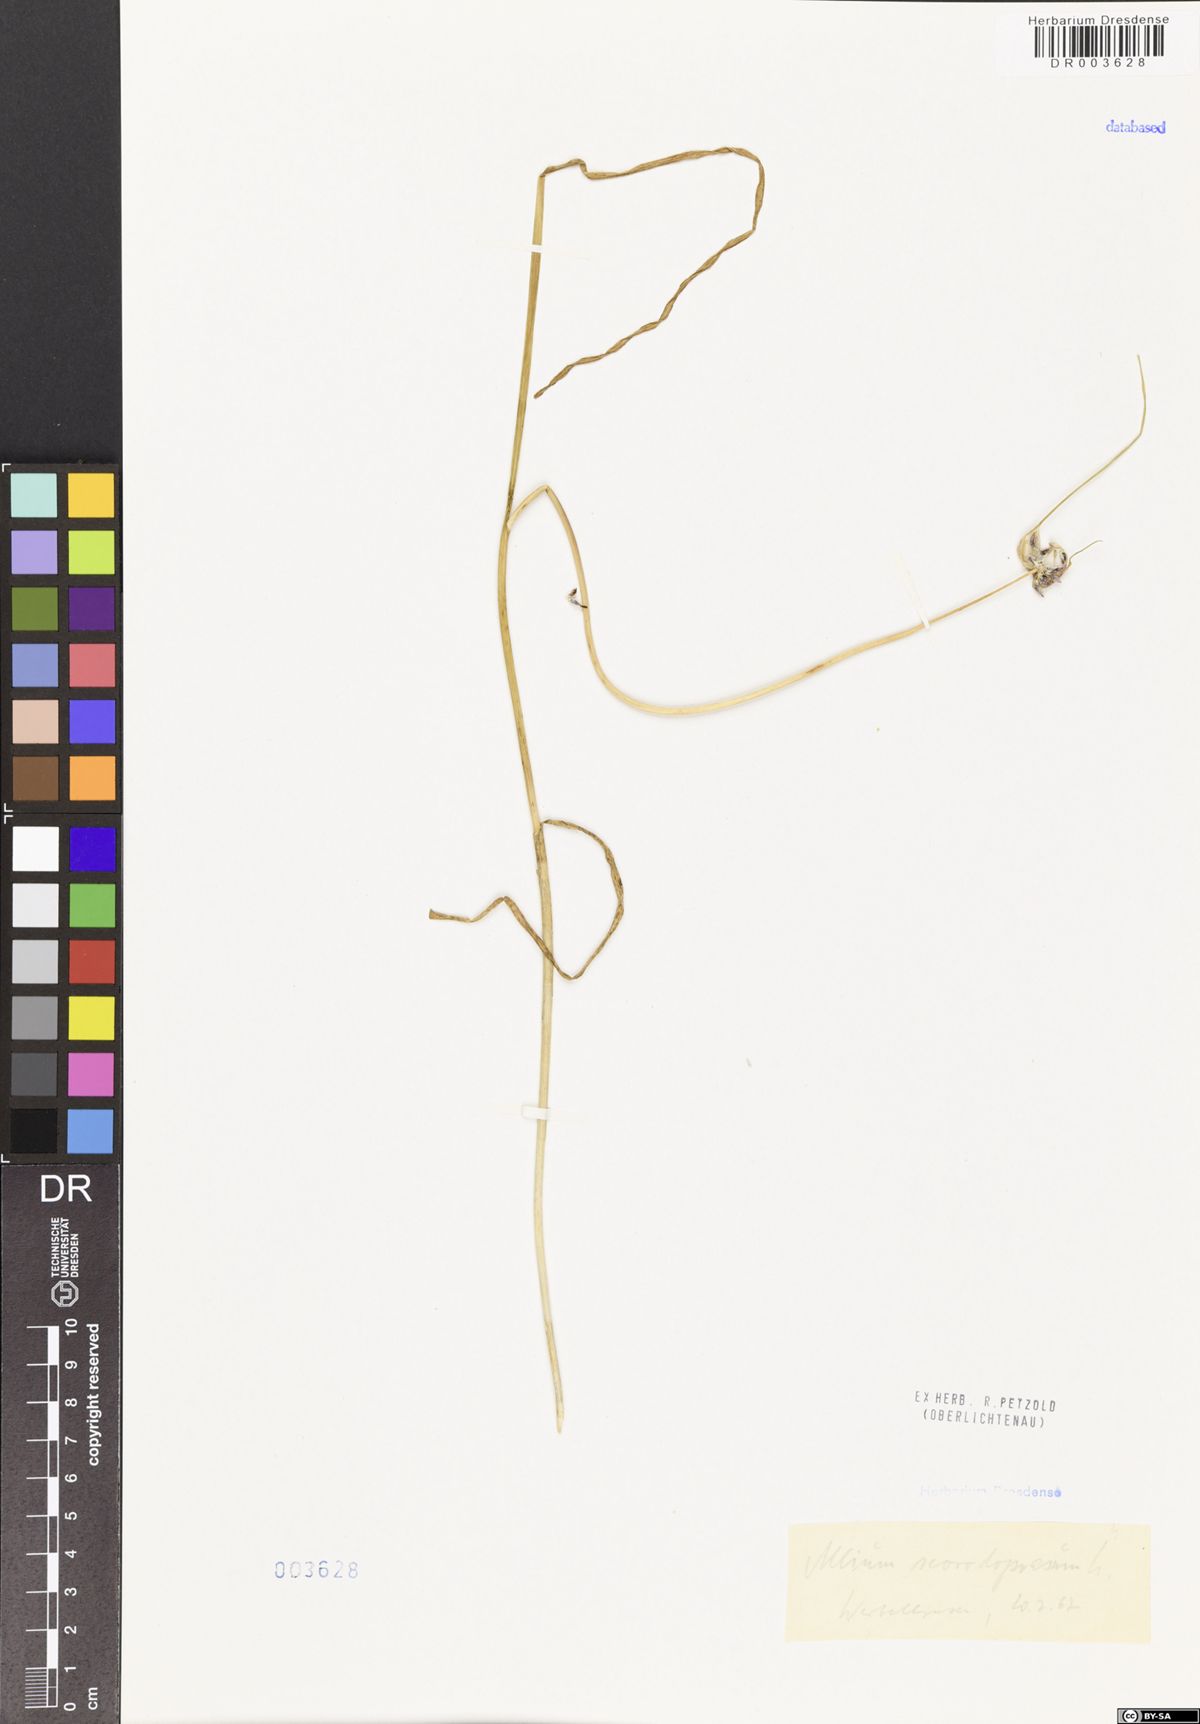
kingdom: Plantae
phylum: Tracheophyta
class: Liliopsida
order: Asparagales
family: Amaryllidaceae
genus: Allium
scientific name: Allium scorodoprasum
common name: Sand leek
